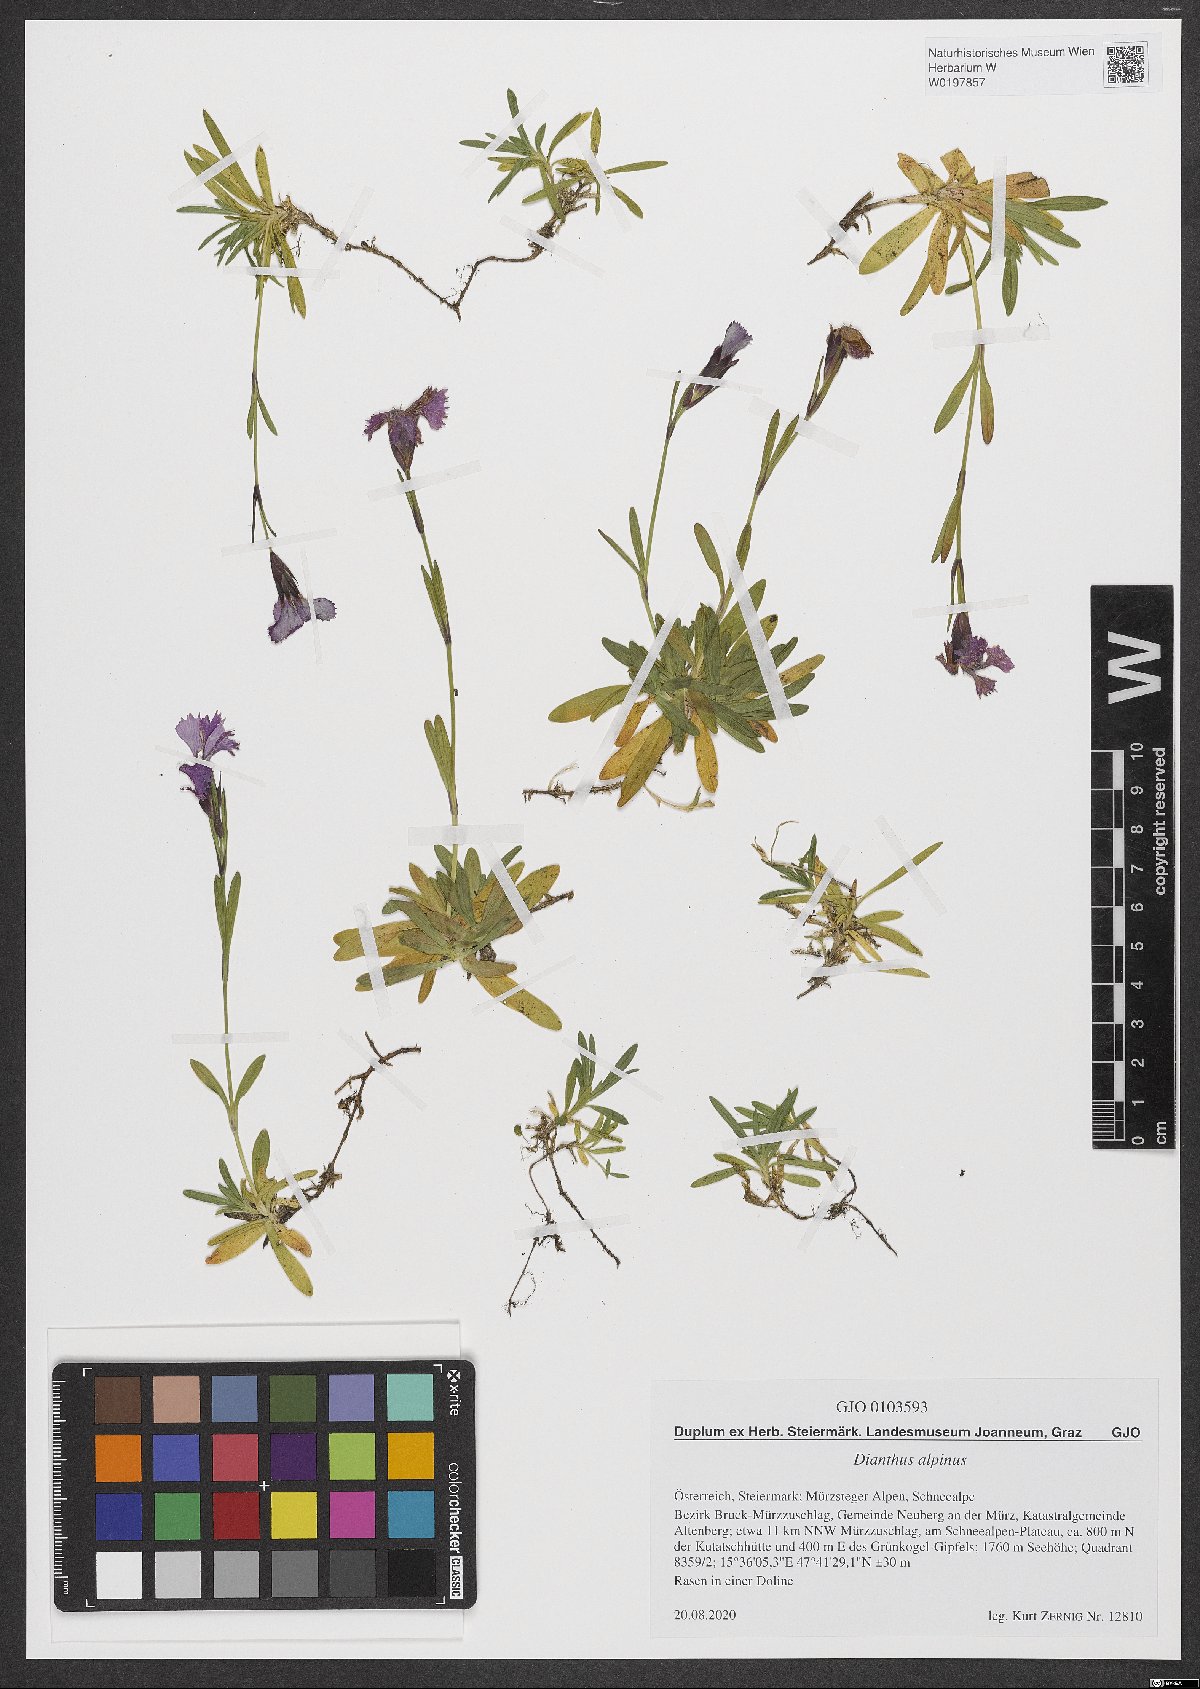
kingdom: Plantae
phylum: Tracheophyta
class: Magnoliopsida
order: Caryophyllales
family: Caryophyllaceae
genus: Dianthus
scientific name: Dianthus alpinus
